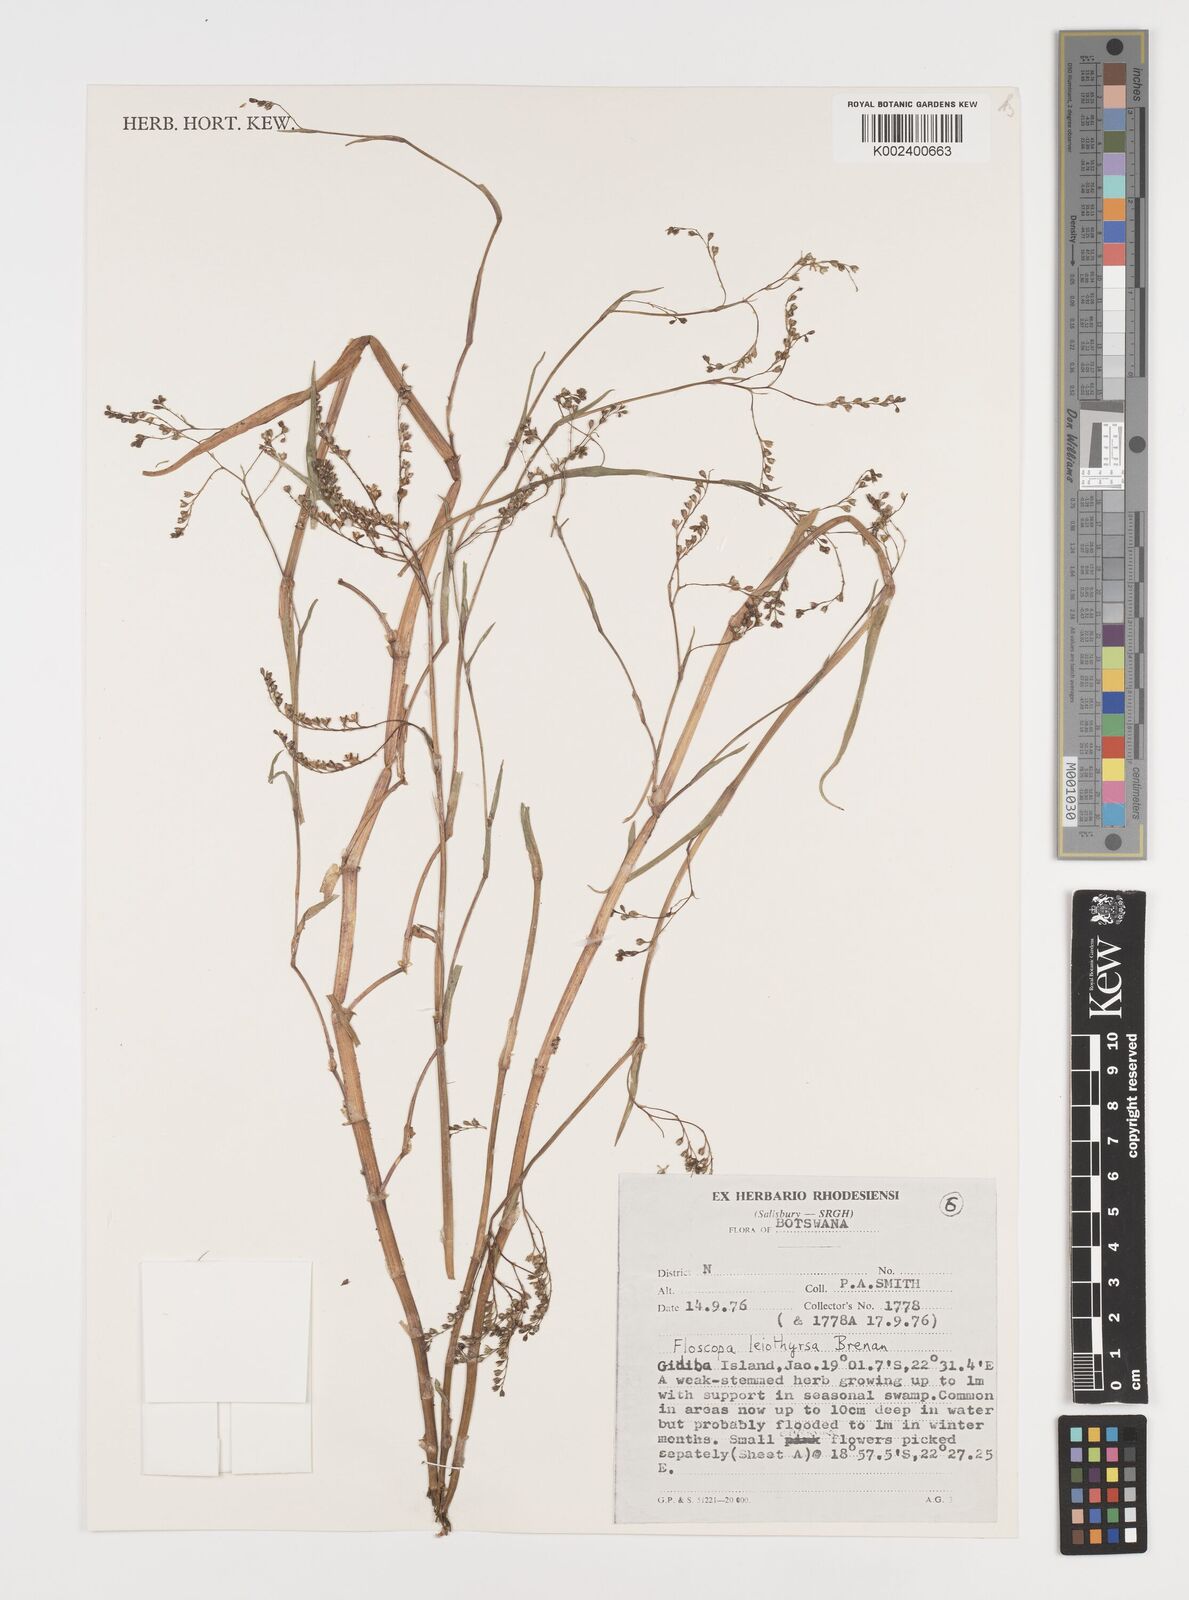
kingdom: Plantae
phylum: Tracheophyta
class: Liliopsida
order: Commelinales
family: Commelinaceae
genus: Floscopa
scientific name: Floscopa leiothyrsa
